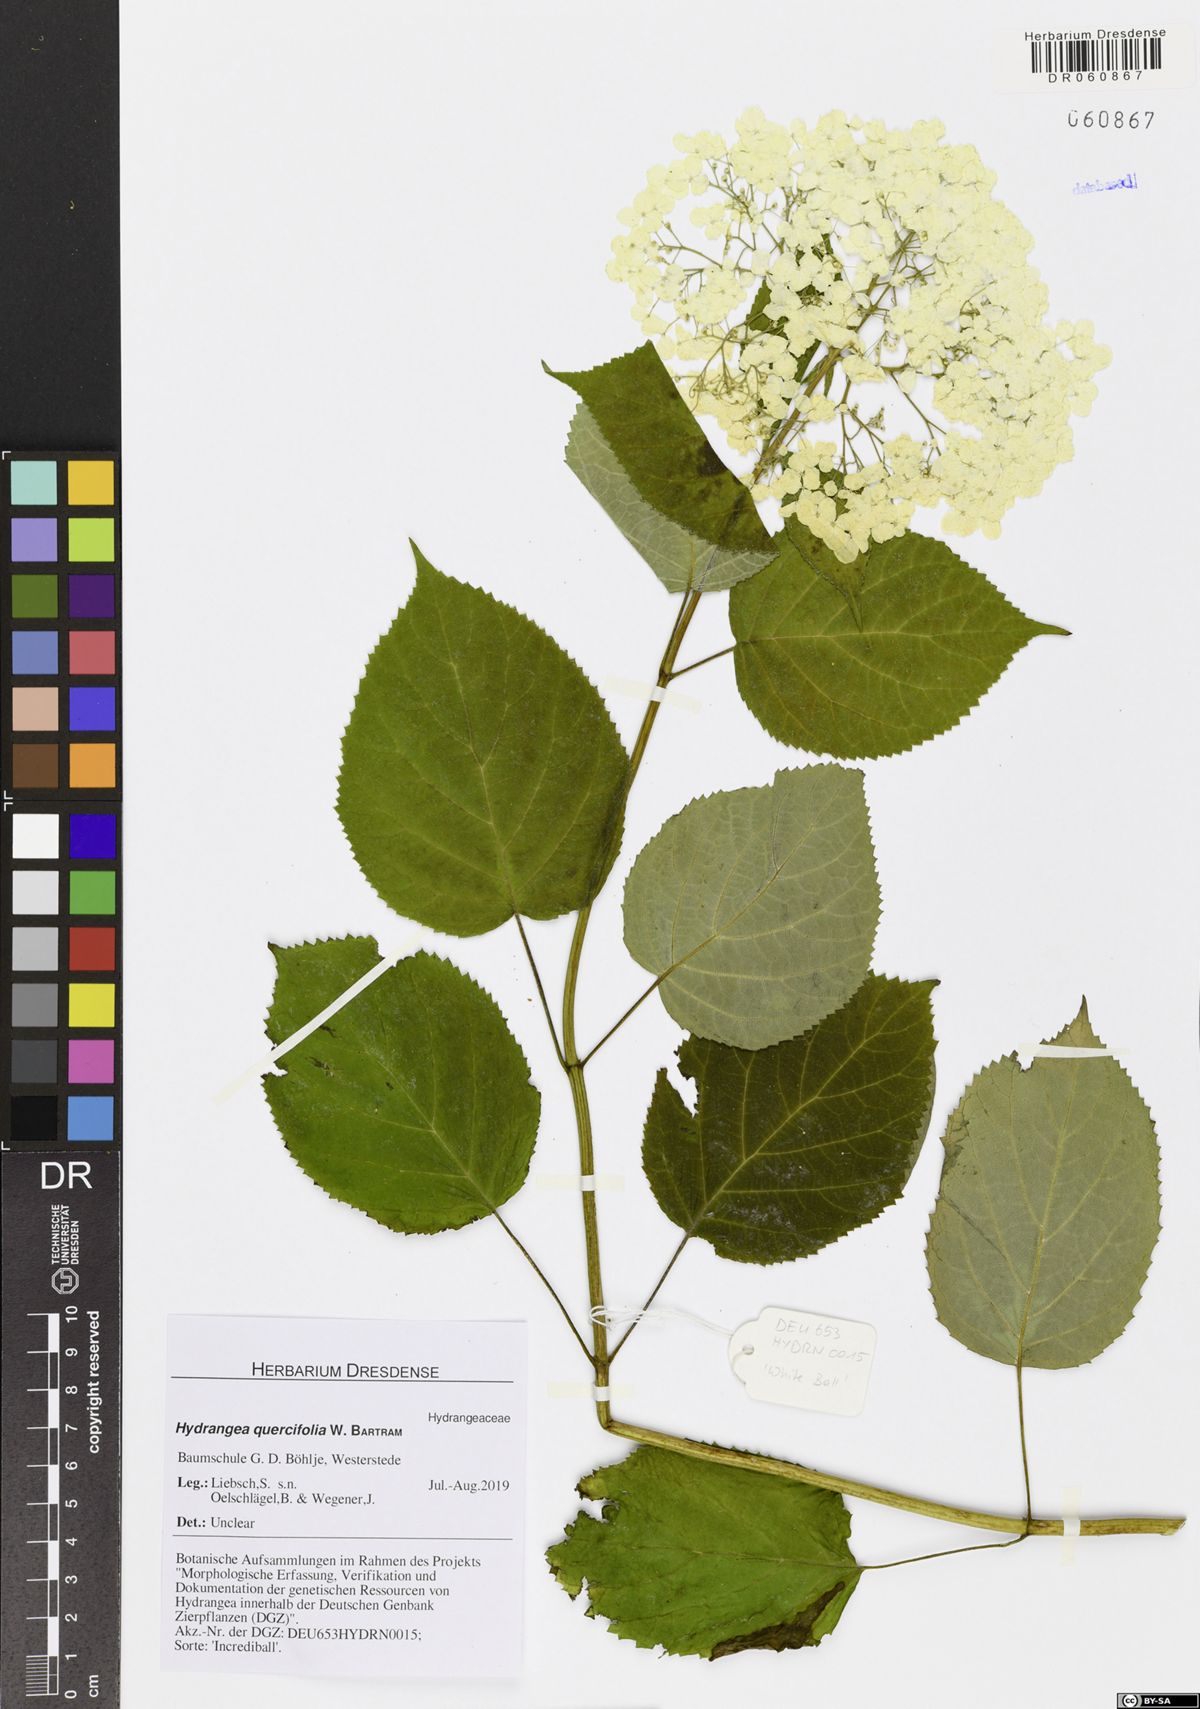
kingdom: Plantae
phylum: Tracheophyta
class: Magnoliopsida
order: Cornales
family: Hydrangeaceae
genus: Hydrangea
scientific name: Hydrangea arborescens
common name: Sevenbark
